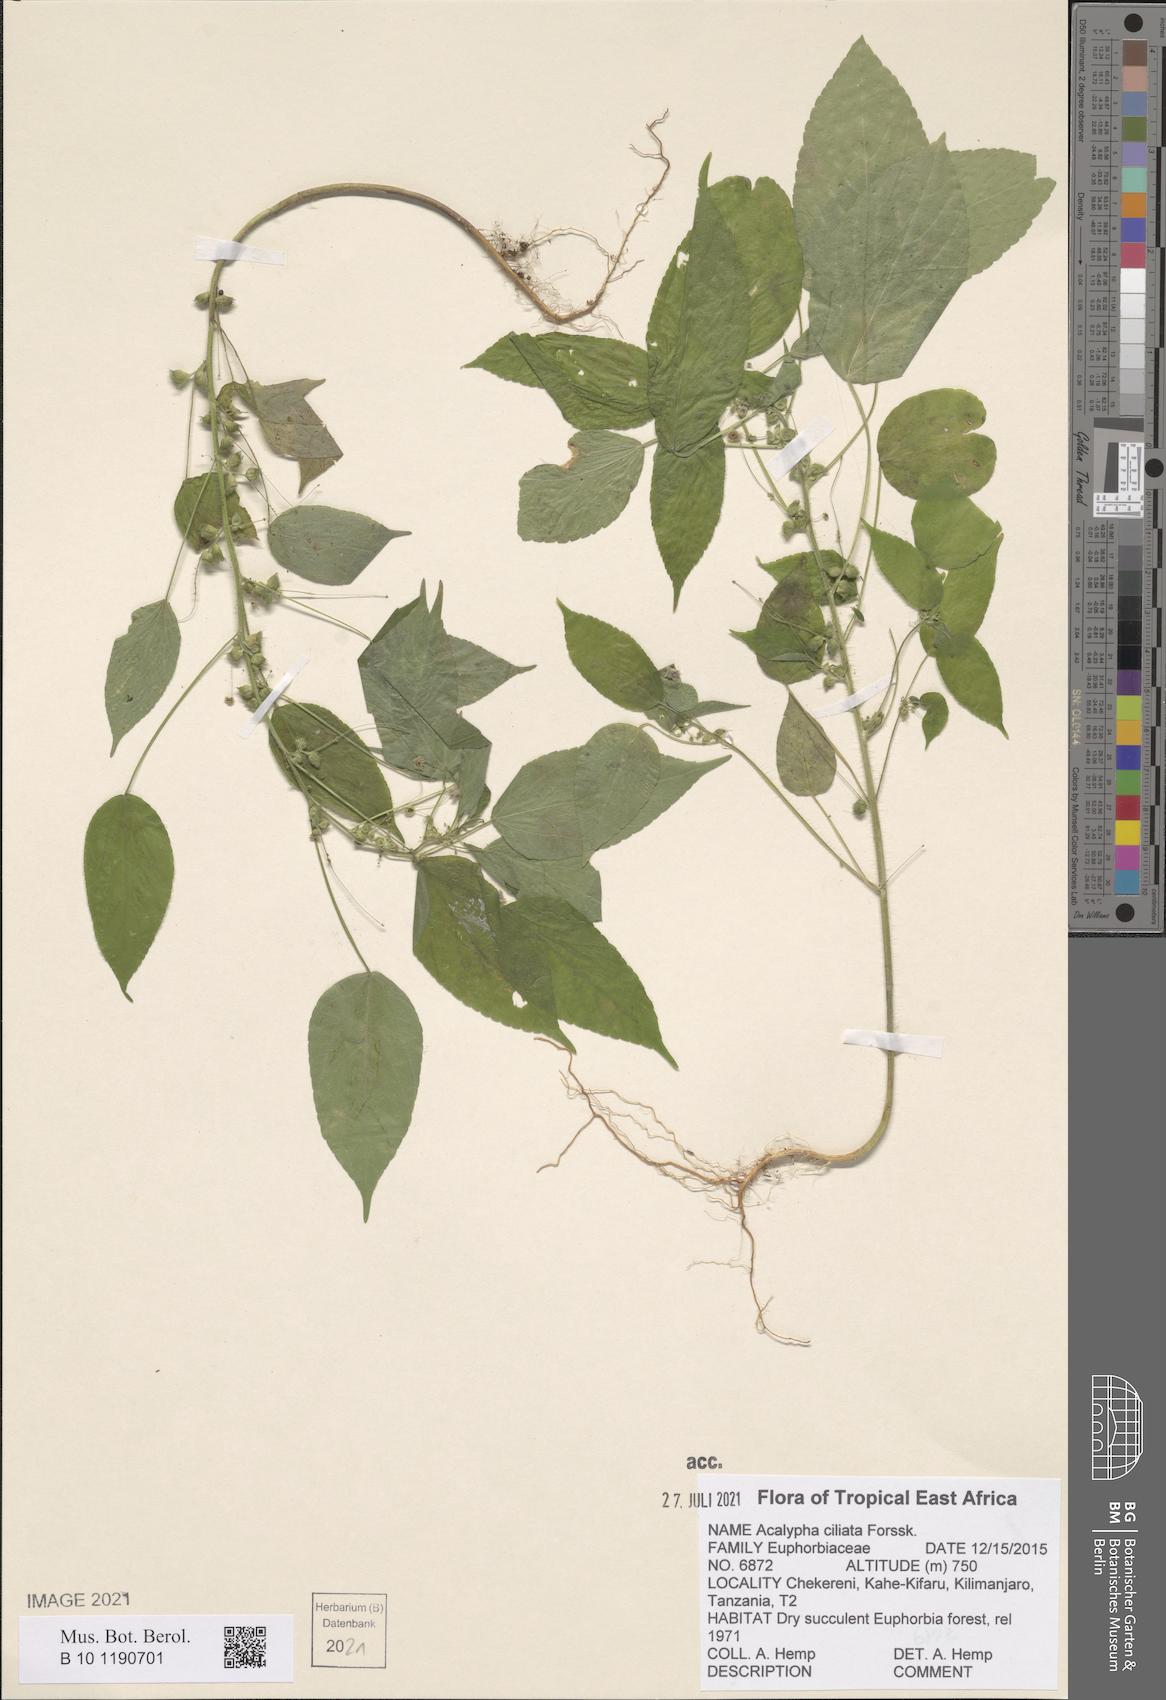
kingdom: Plantae
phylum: Tracheophyta
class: Magnoliopsida
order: Malpighiales
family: Euphorbiaceae
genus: Acalypha
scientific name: Acalypha ciliata
